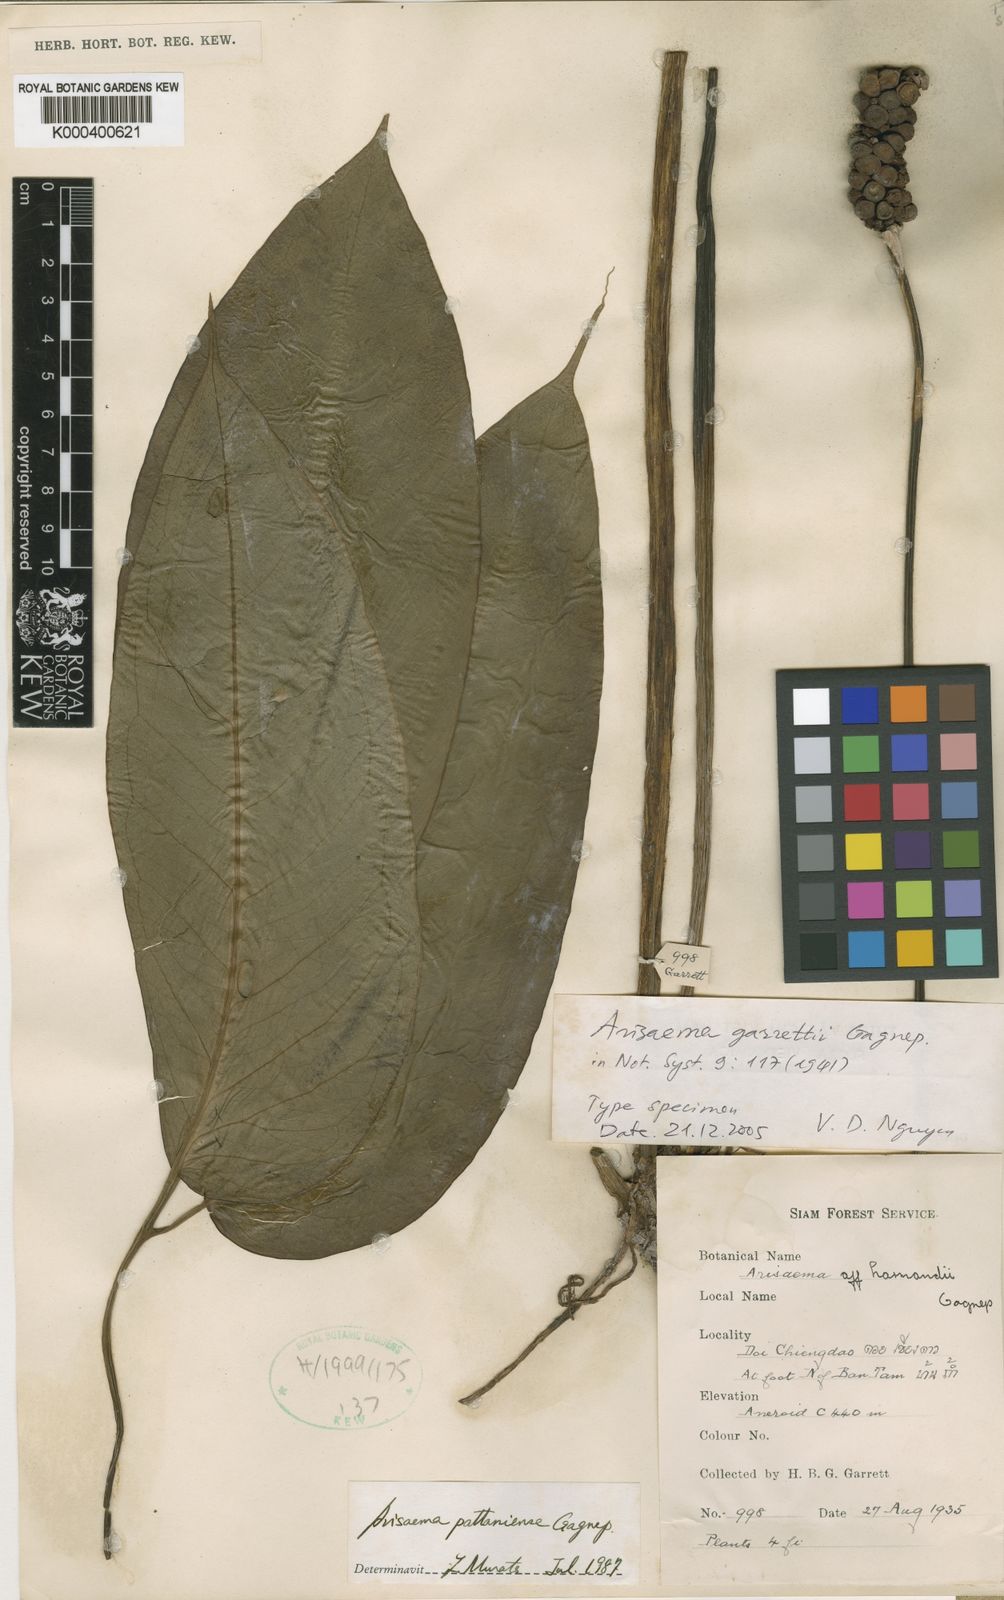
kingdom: Plantae
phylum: Tracheophyta
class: Liliopsida
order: Alismatales
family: Araceae
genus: Arisaema
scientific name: Arisaema garrettii
